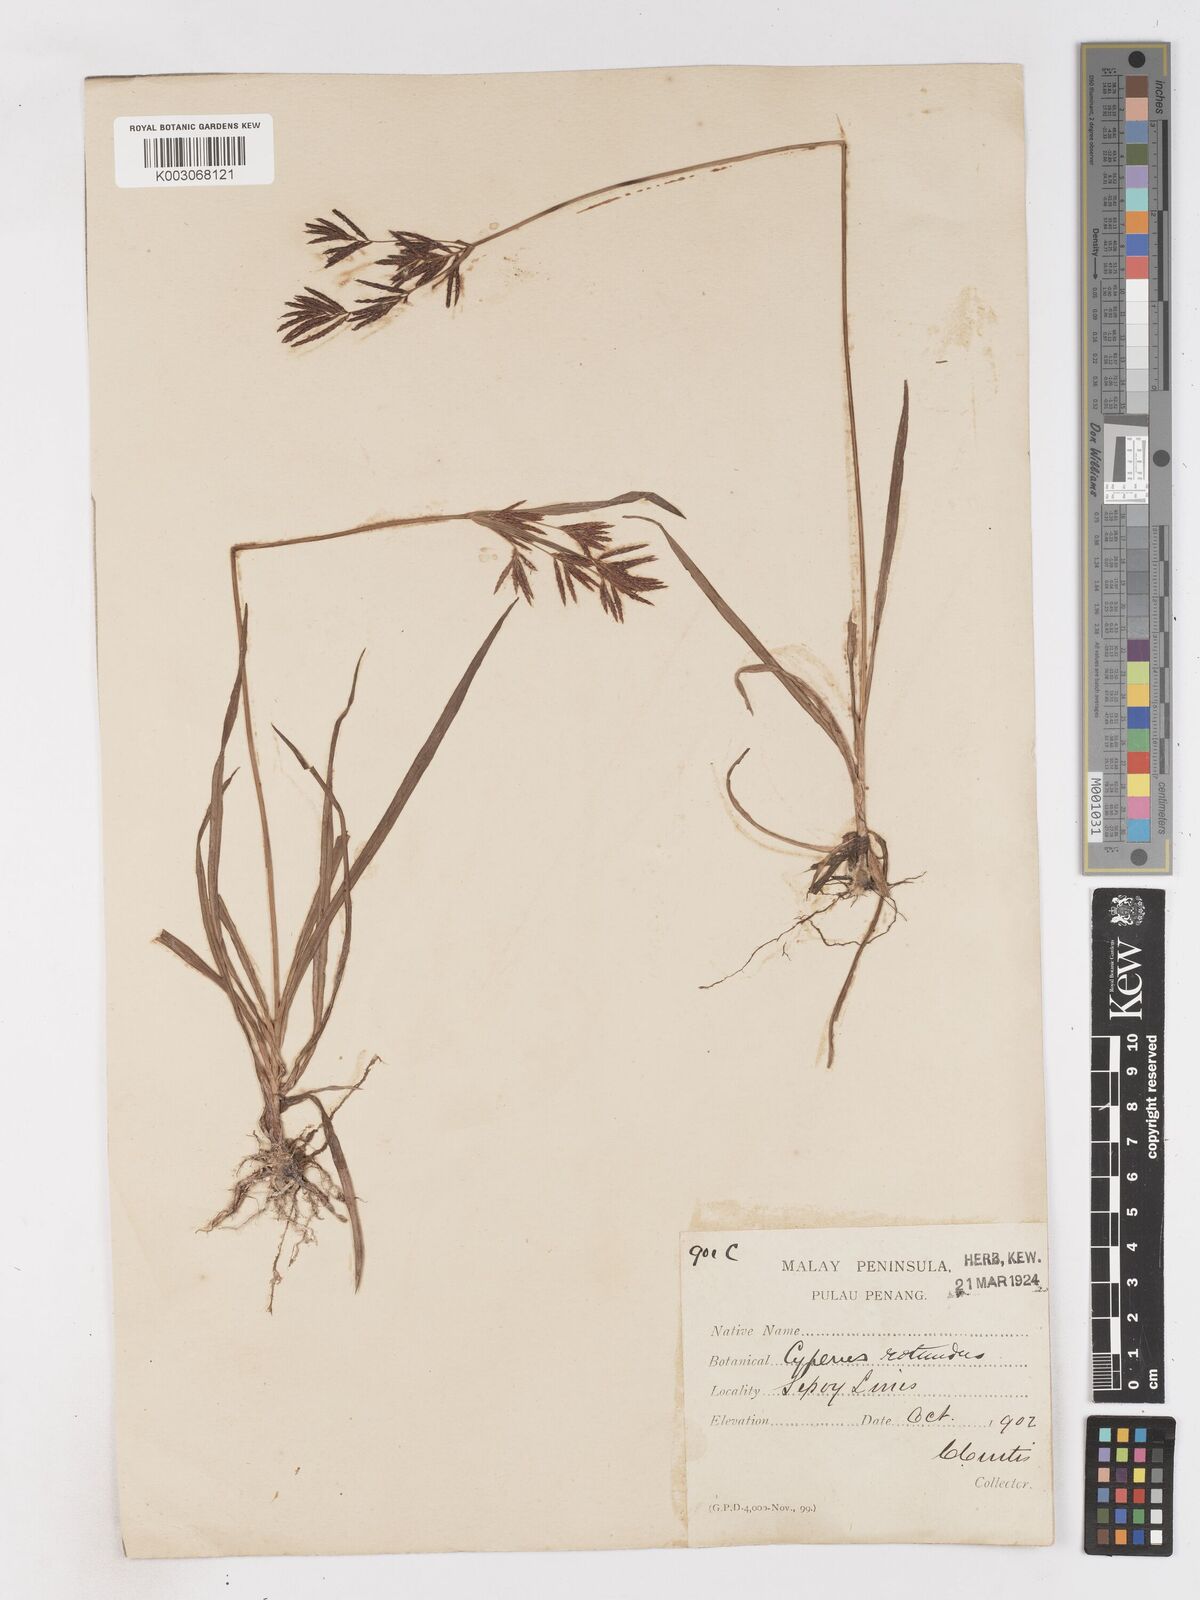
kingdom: Plantae
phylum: Tracheophyta
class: Liliopsida
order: Poales
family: Cyperaceae
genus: Cyperus
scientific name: Cyperus rotundus
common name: Nutgrass
